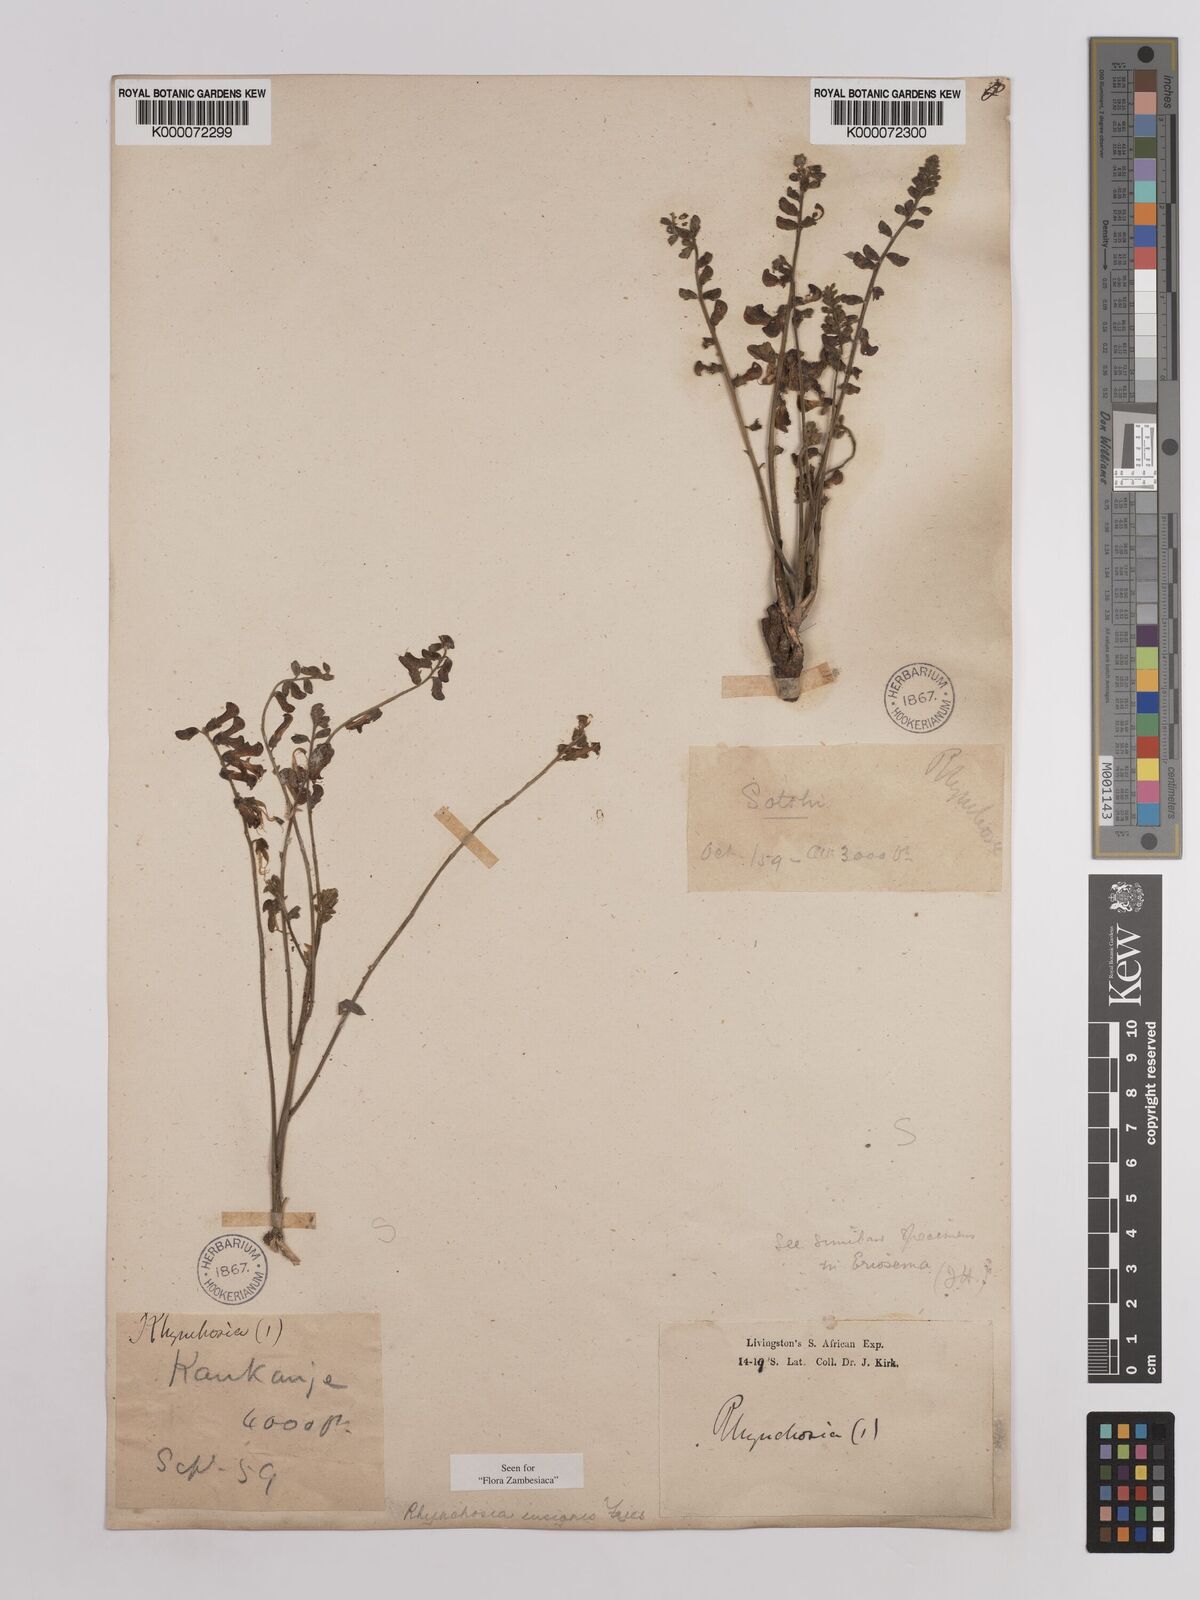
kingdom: Plantae
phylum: Tracheophyta
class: Magnoliopsida
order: Fabales
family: Fabaceae
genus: Rhynchosia
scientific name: Rhynchosia insignis
